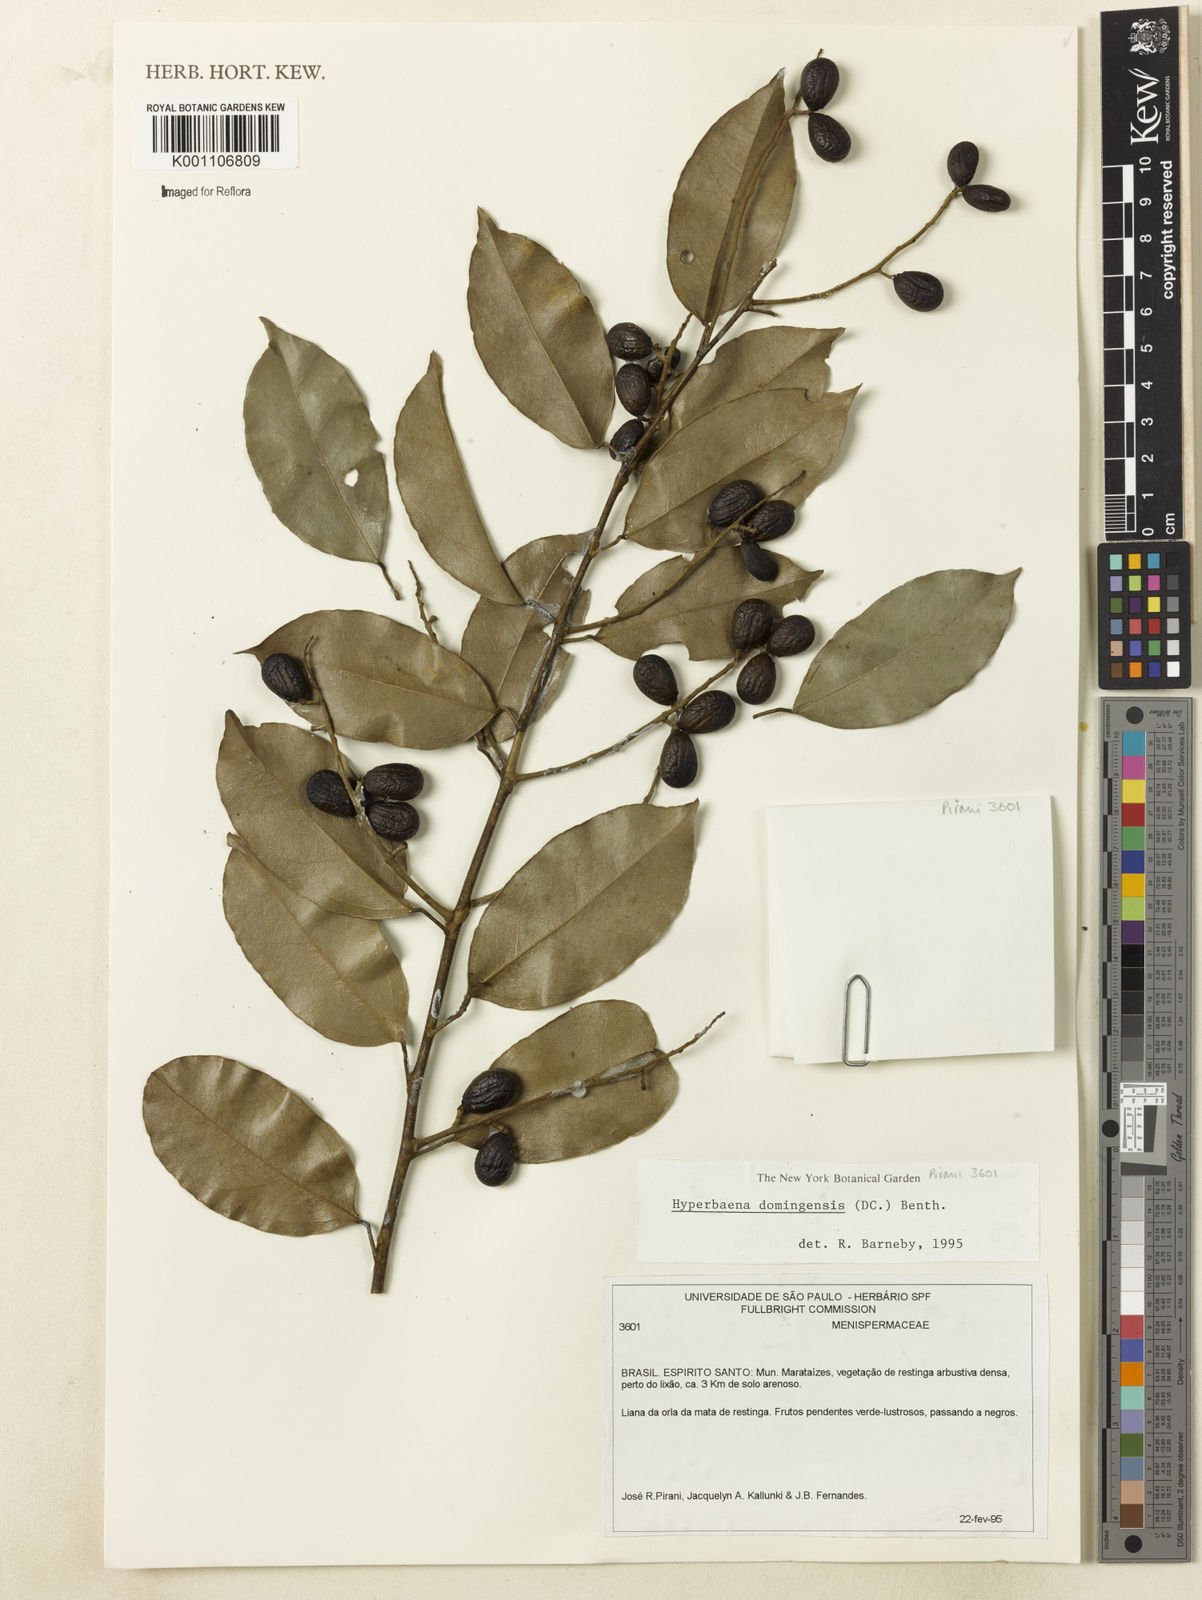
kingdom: Plantae
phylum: Tracheophyta
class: Magnoliopsida
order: Ranunculales
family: Menispermaceae
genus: Hyperbaena
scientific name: Hyperbaena domingensis
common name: Forest snakevine
